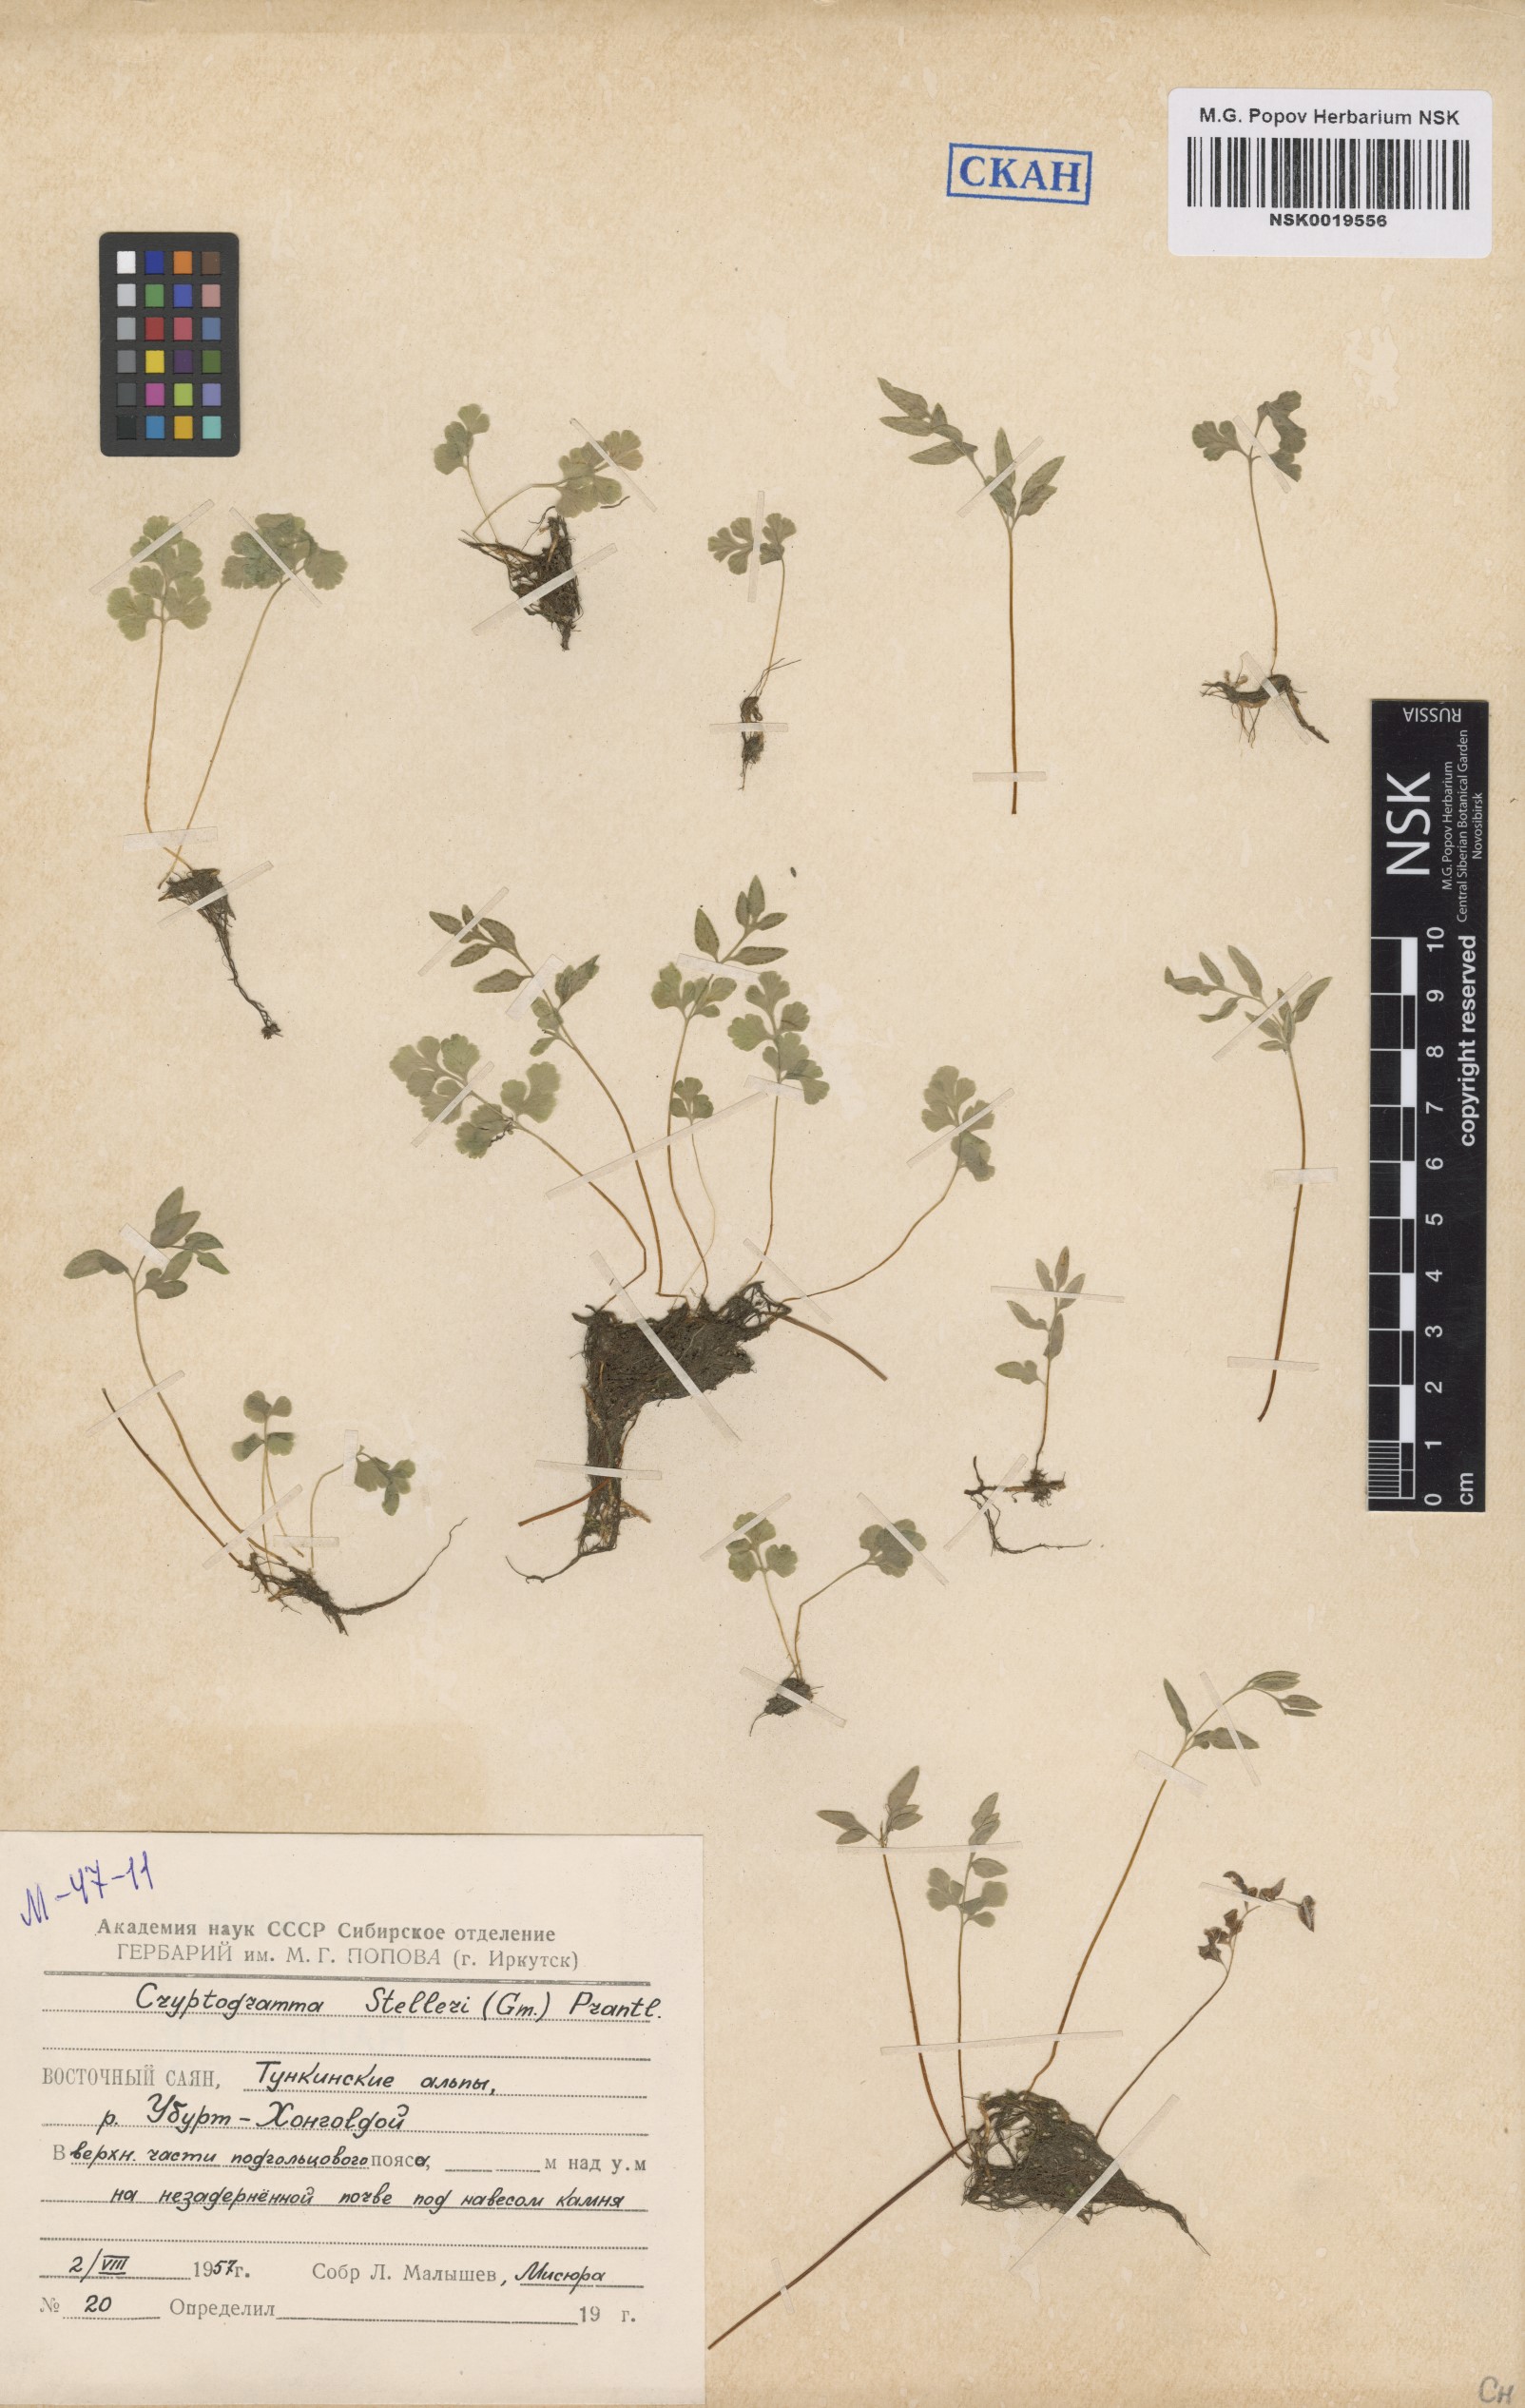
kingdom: Plantae
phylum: Tracheophyta
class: Polypodiopsida
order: Polypodiales
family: Pteridaceae
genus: Cryptogramma
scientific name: Cryptogramma stelleri
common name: Cliff-brake
